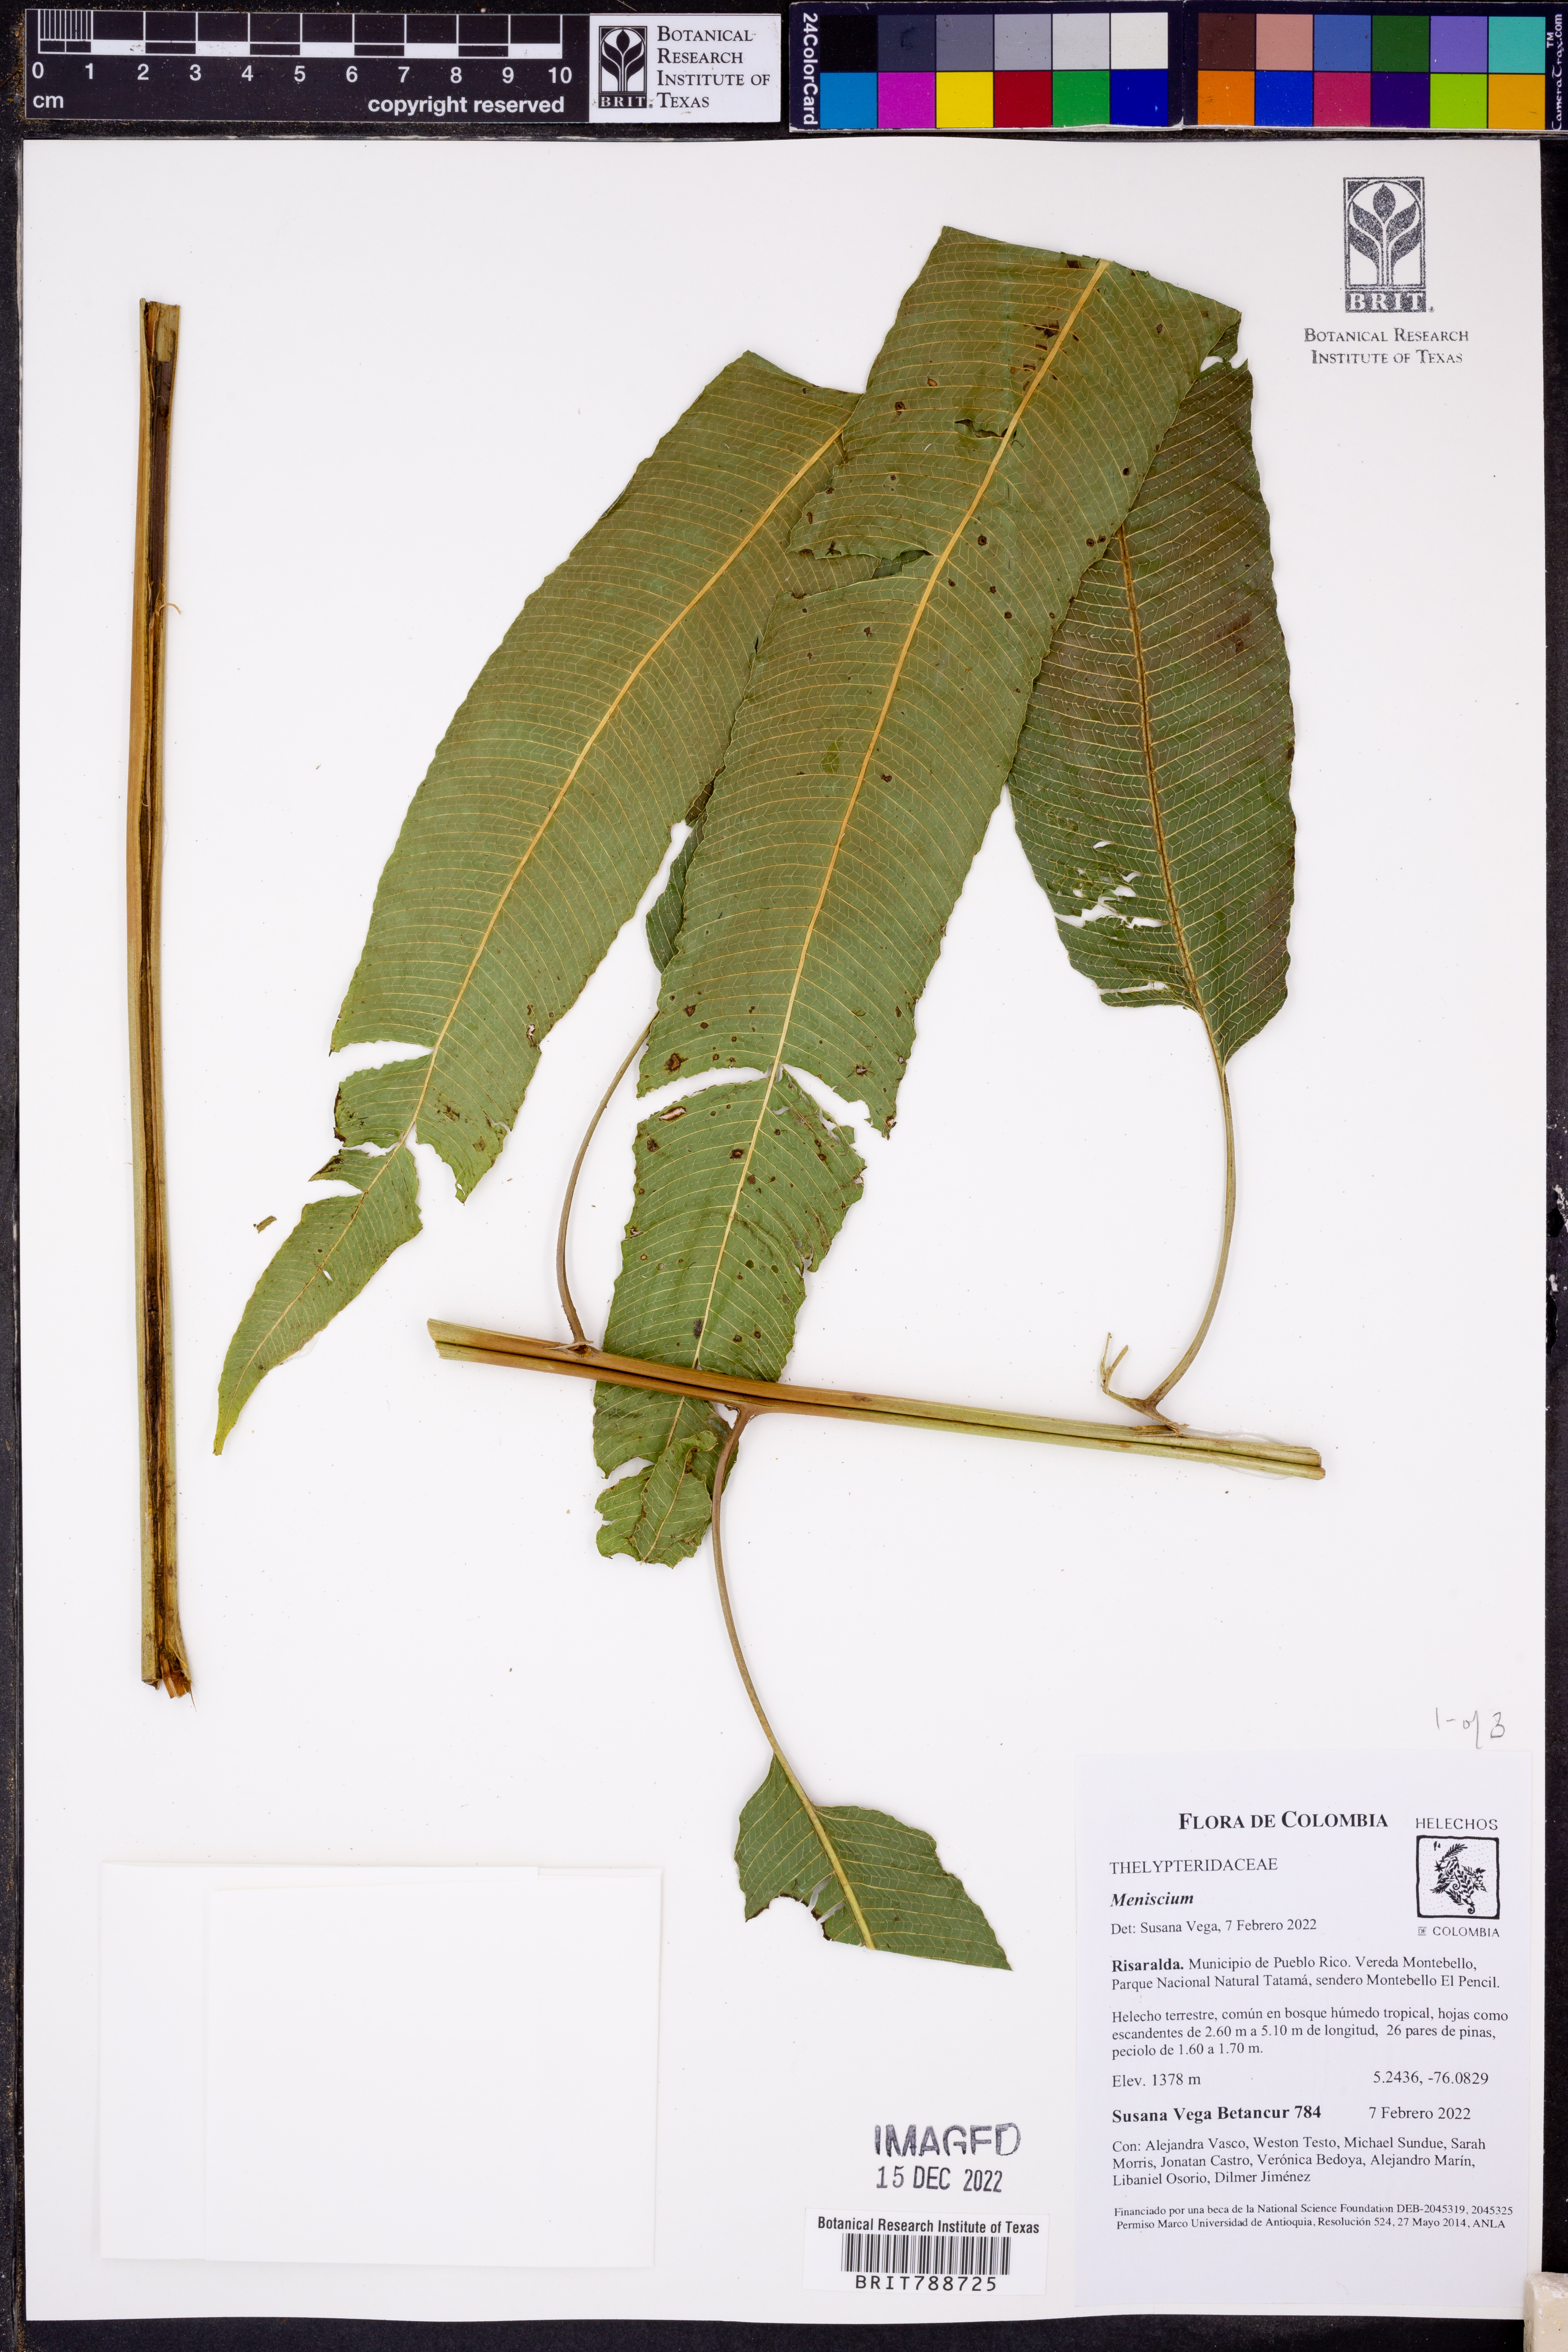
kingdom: Plantae
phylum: Tracheophyta
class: Polypodiopsida
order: Polypodiales
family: Thelypteridaceae
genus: Meniscium
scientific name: Meniscium
